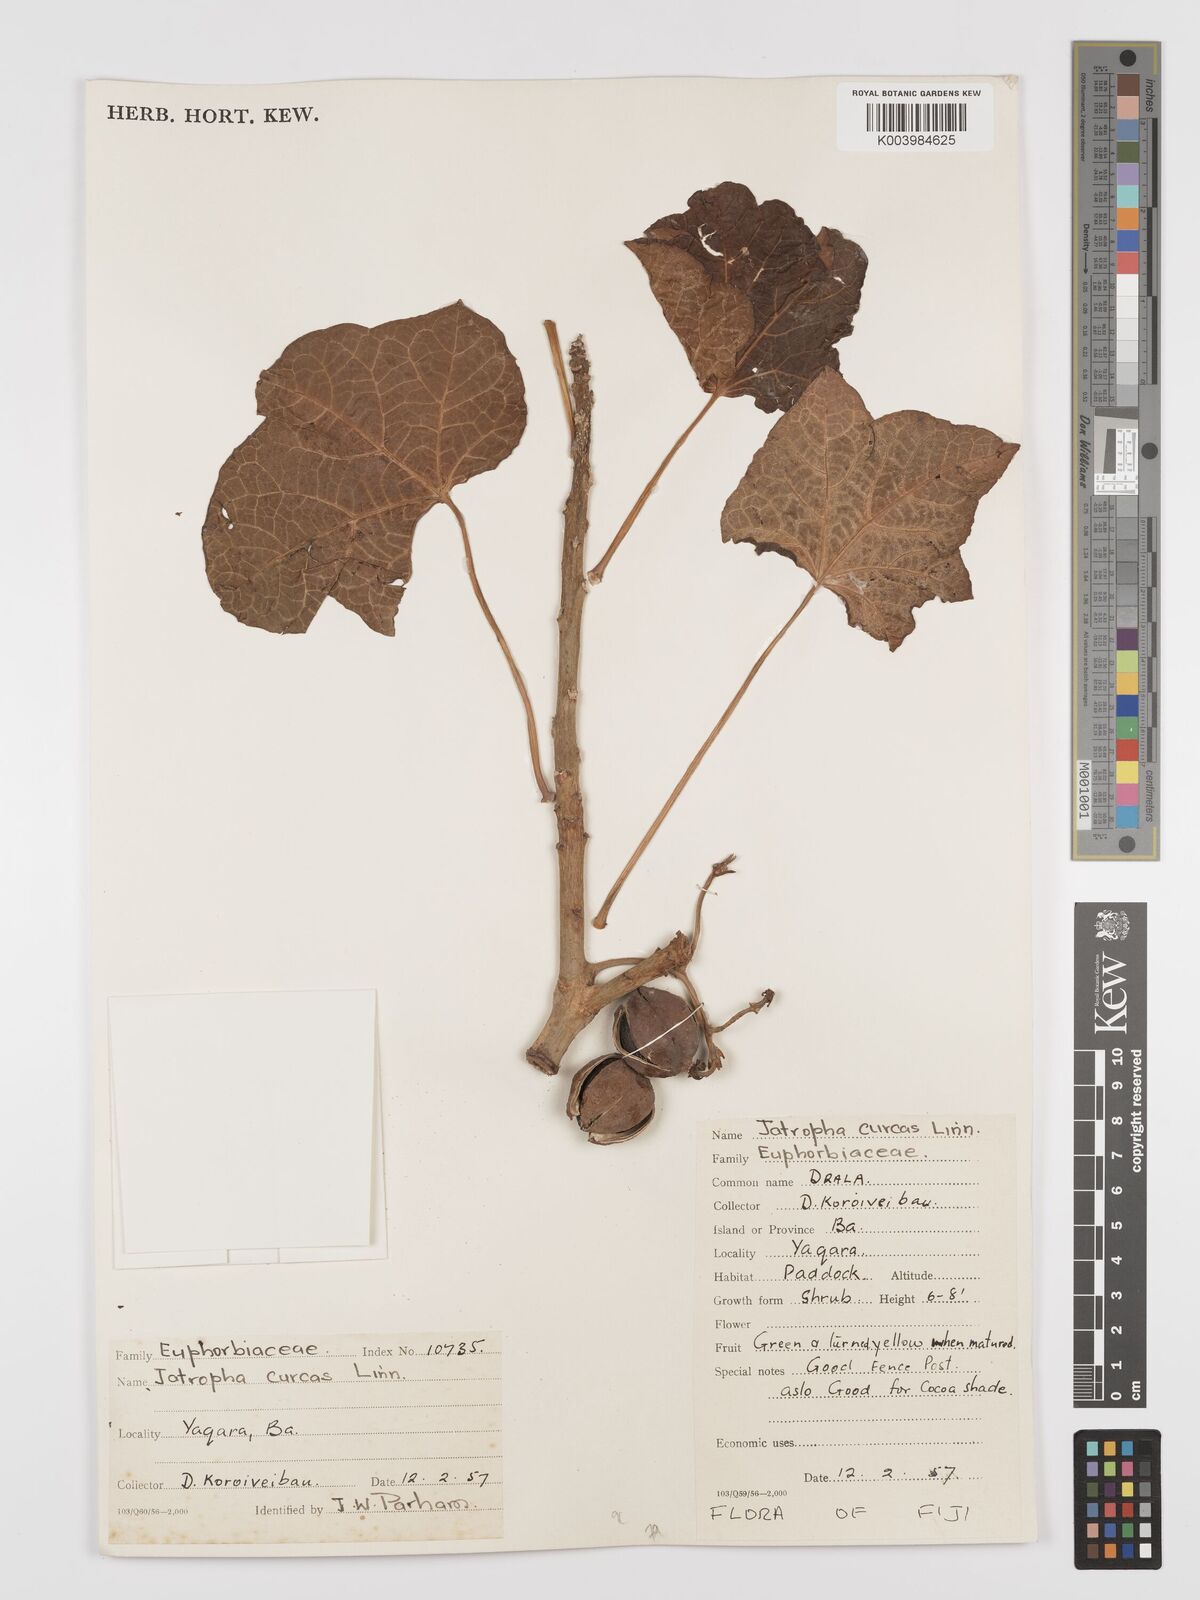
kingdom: Plantae
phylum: Tracheophyta
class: Magnoliopsida
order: Malpighiales
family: Euphorbiaceae
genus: Jatropha
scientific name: Jatropha curcas
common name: Barbados nut
